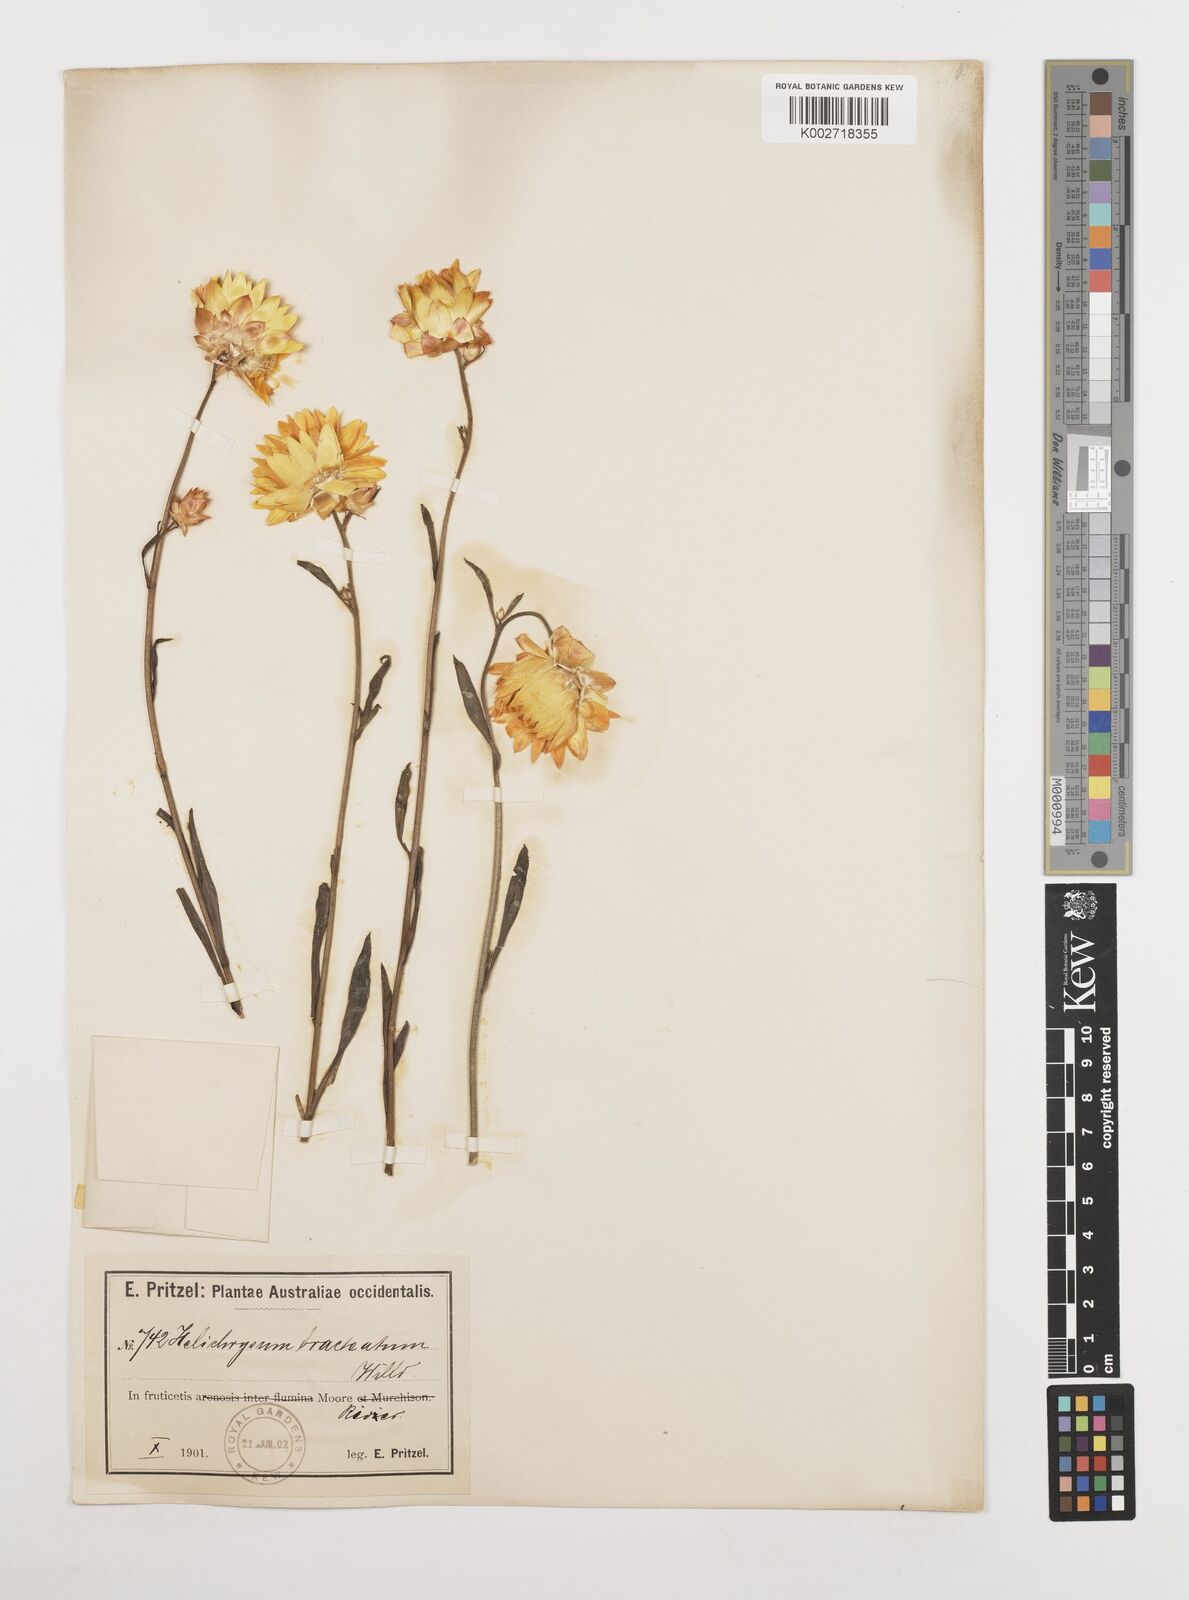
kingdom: Plantae
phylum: Tracheophyta
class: Magnoliopsida
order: Asterales
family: Asteraceae
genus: Xerochrysum
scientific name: Xerochrysum bracteatum
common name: Bracted strawflower
